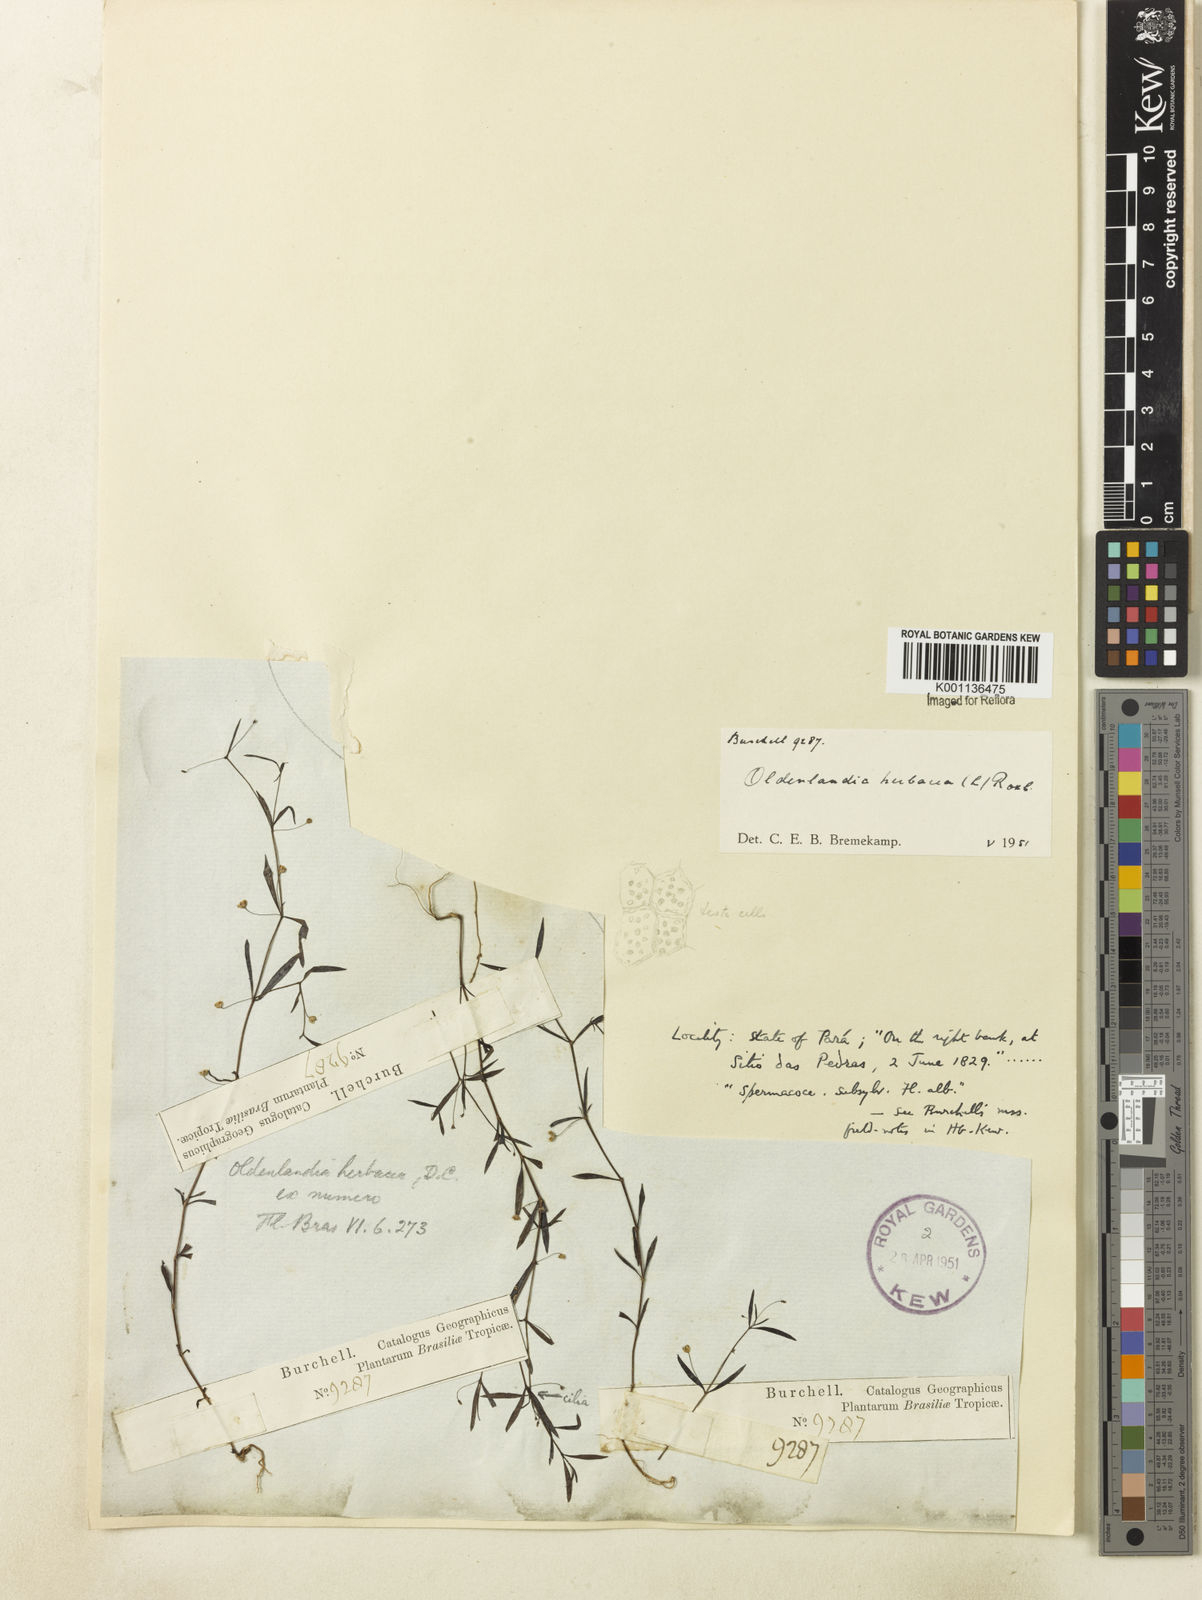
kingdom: Plantae
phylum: Tracheophyta
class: Magnoliopsida
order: Gentianales
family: Rubiaceae
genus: Oldenlandia
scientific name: Oldenlandia corymbosa
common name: Flat-top mille graines
